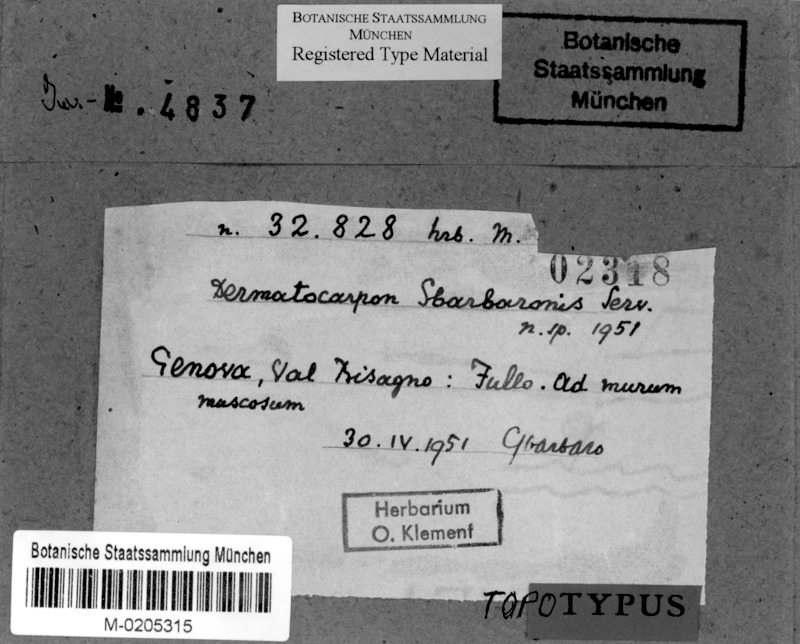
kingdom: Fungi
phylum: Ascomycota
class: Eurotiomycetes
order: Verrucariales
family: Verrucariaceae
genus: Involucropyrenium
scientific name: Involucropyrenium sbarbaronis
